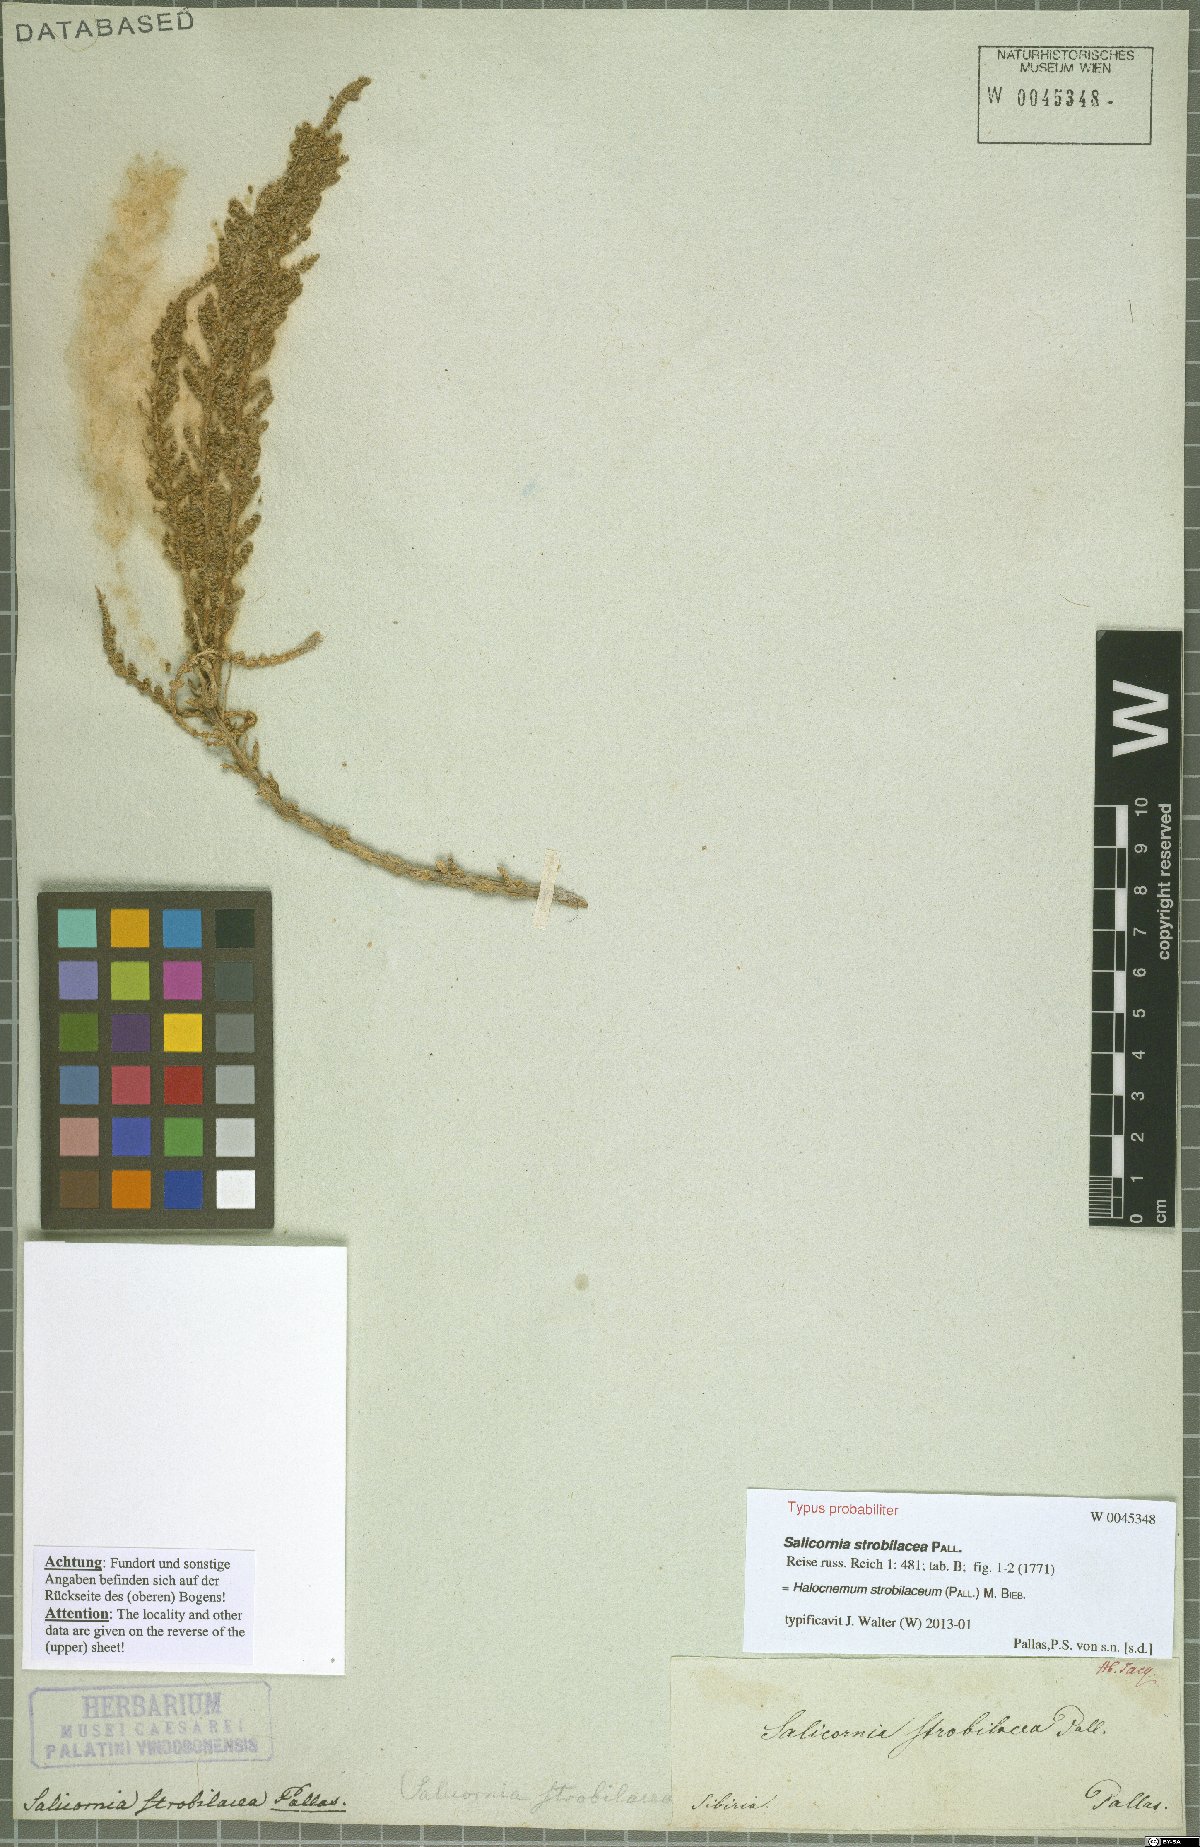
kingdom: Plantae
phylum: Tracheophyta
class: Magnoliopsida
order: Caryophyllales
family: Amaranthaceae
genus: Halocnemum
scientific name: Halocnemum strobilaceum
